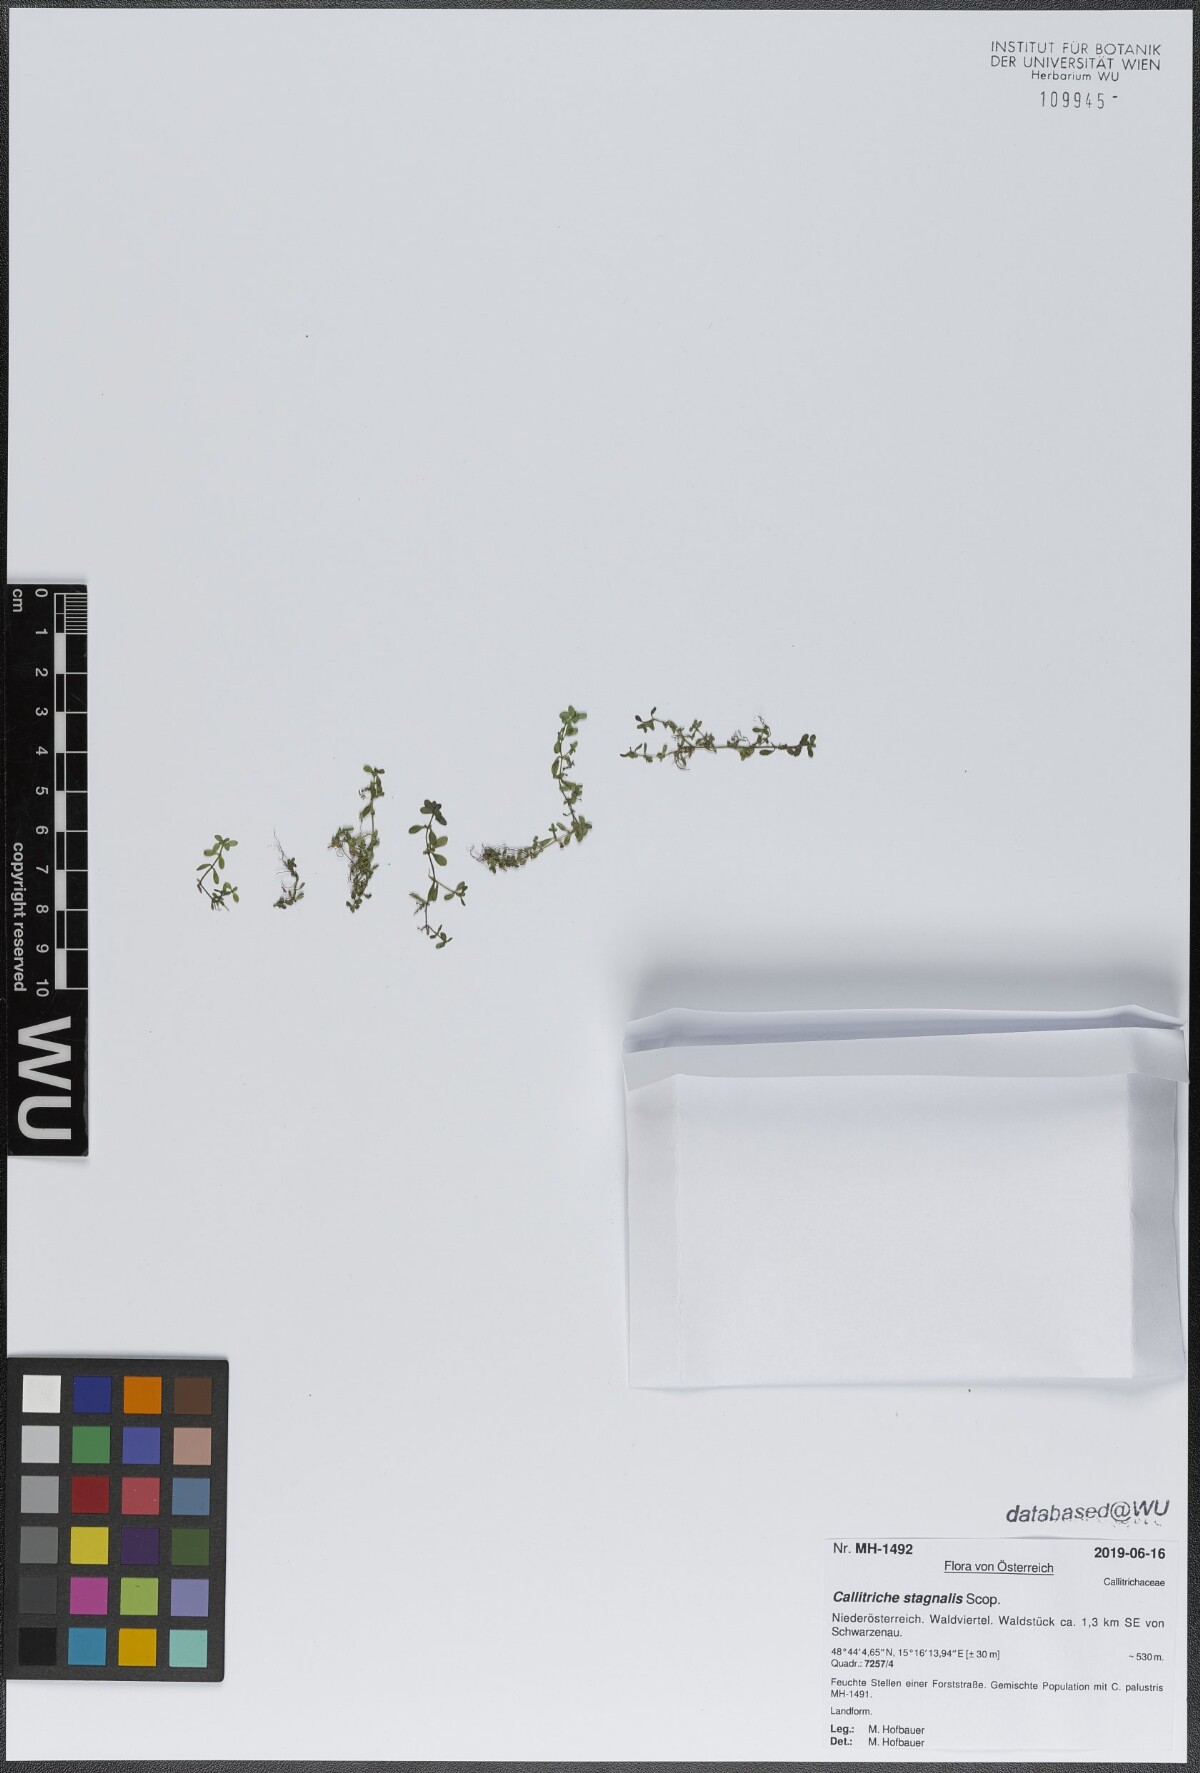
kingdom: Plantae
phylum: Tracheophyta
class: Magnoliopsida
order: Lamiales
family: Plantaginaceae
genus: Callitriche
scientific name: Callitriche stagnalis
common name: Common water-starwort
